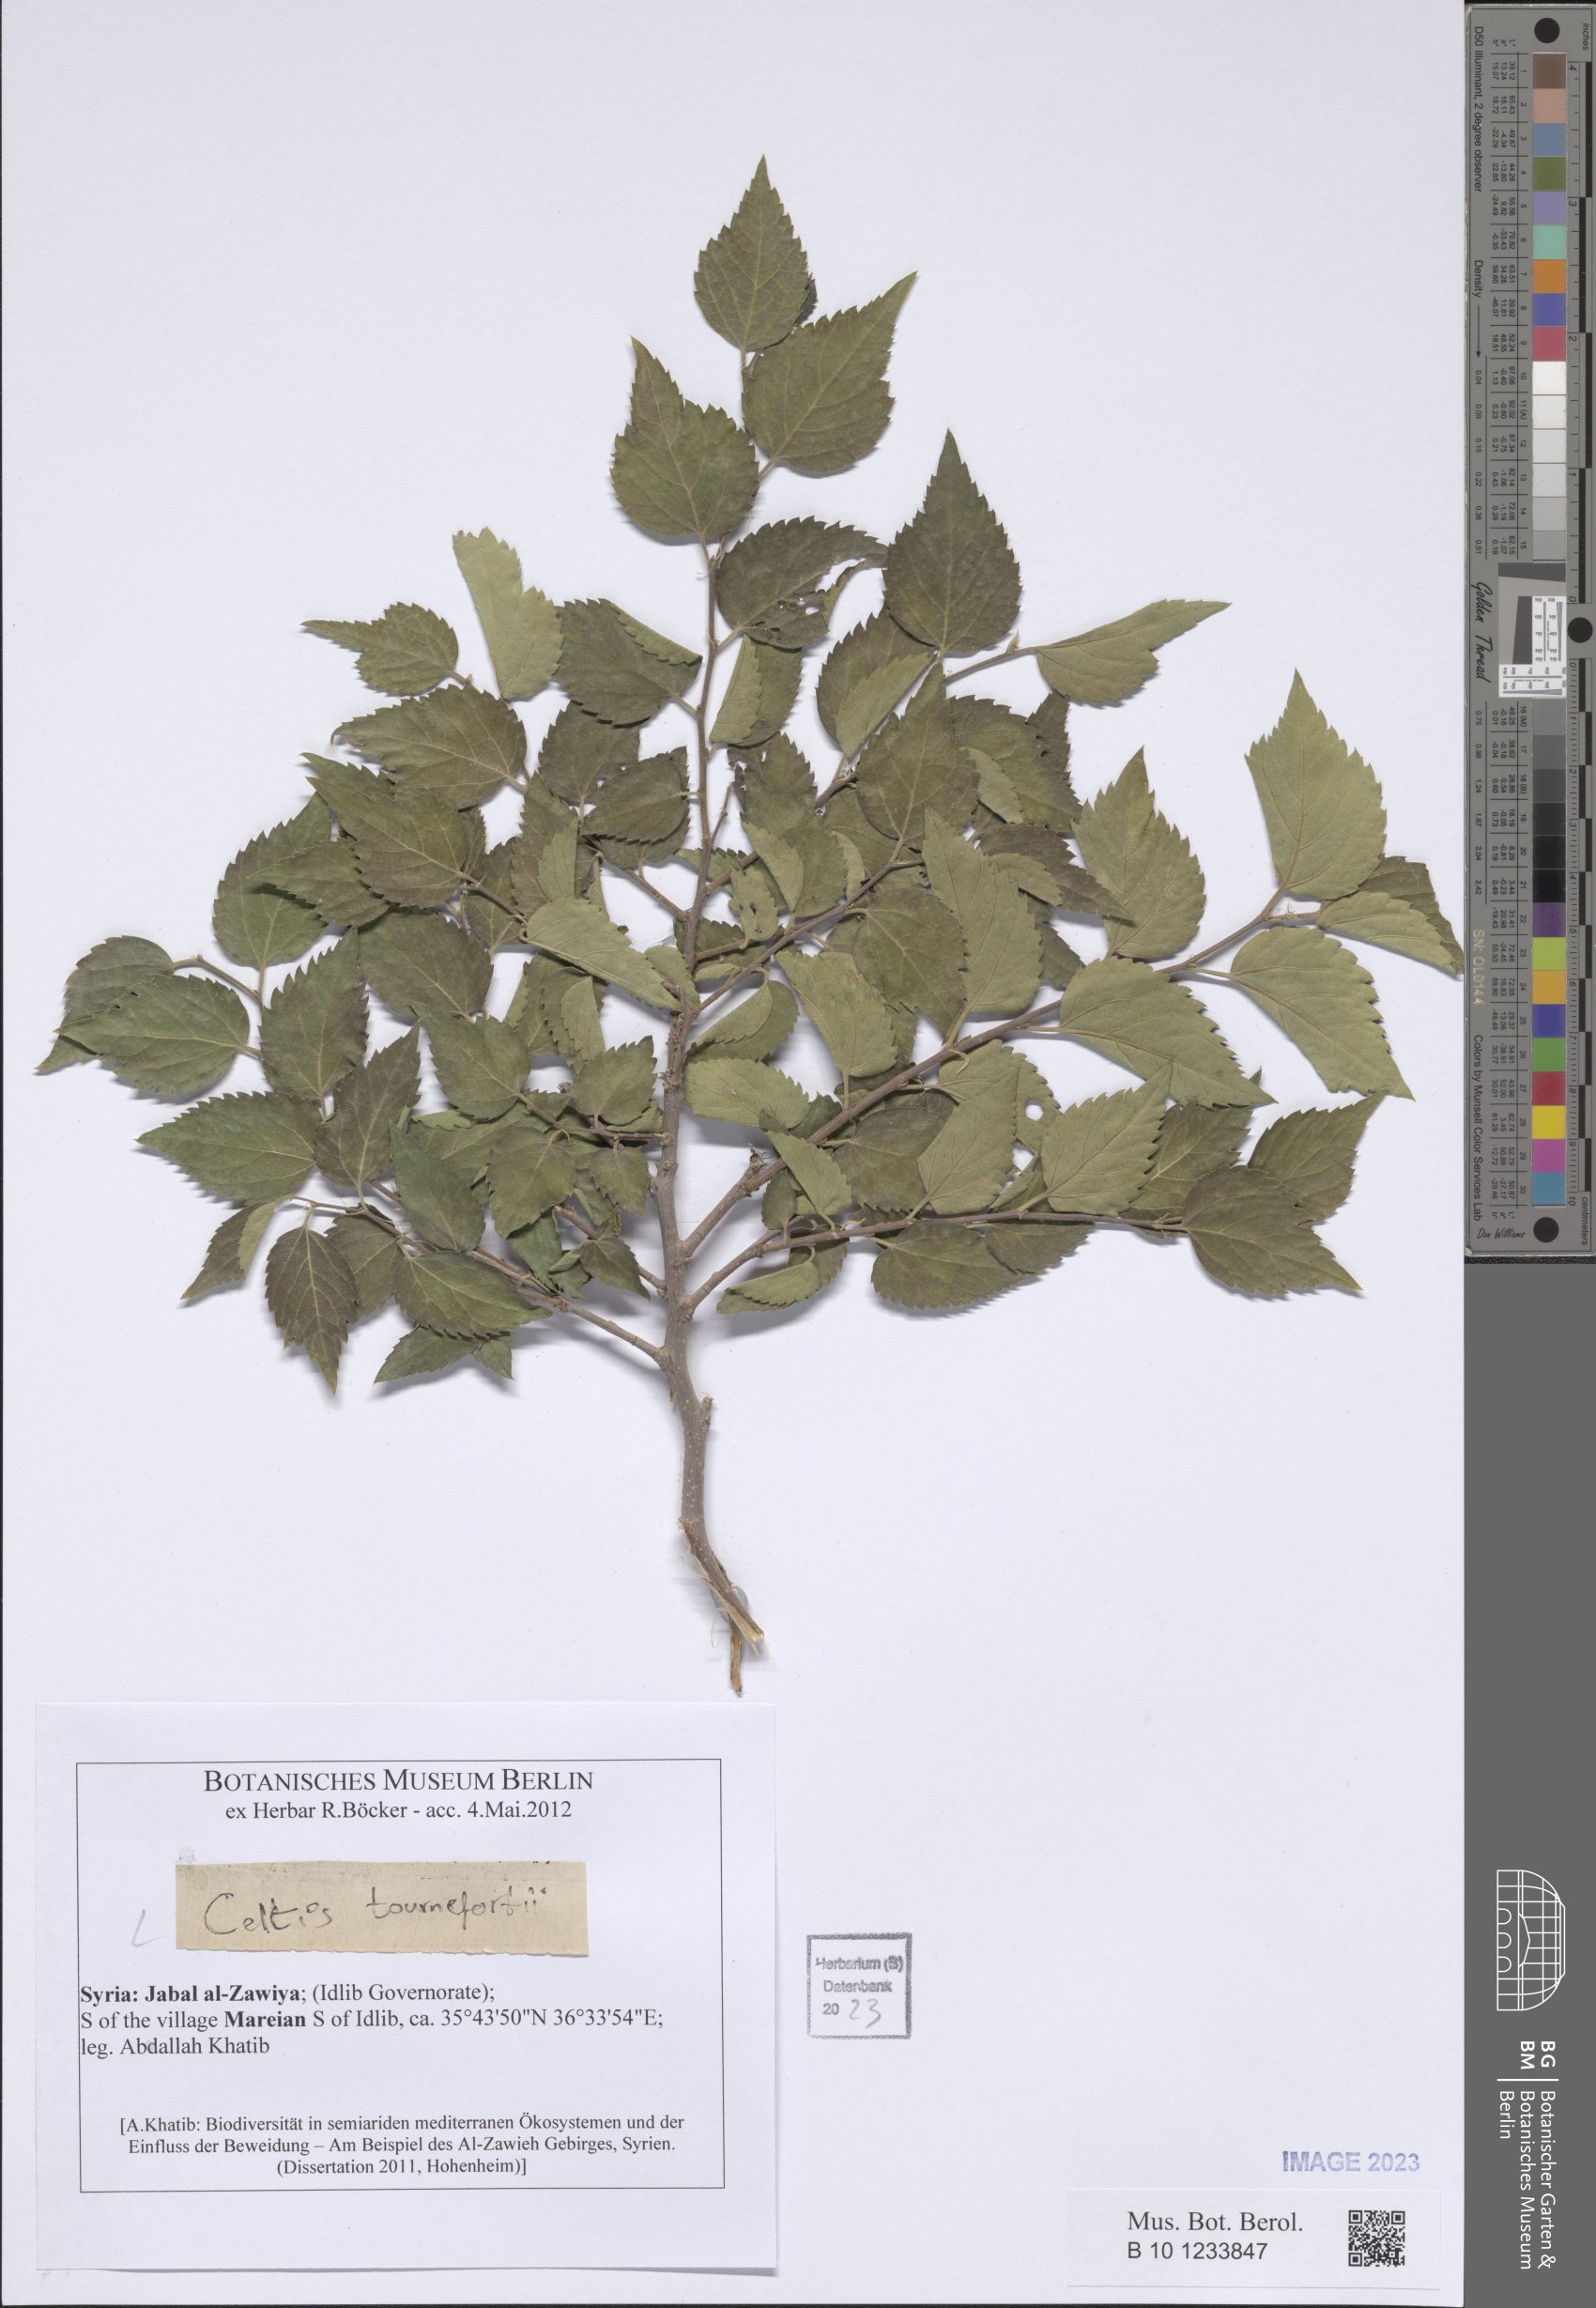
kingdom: Plantae
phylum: Tracheophyta
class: Magnoliopsida
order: Rosales
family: Cannabaceae
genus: Celtis
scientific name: Celtis tournefortii
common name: Oriental hackberry
